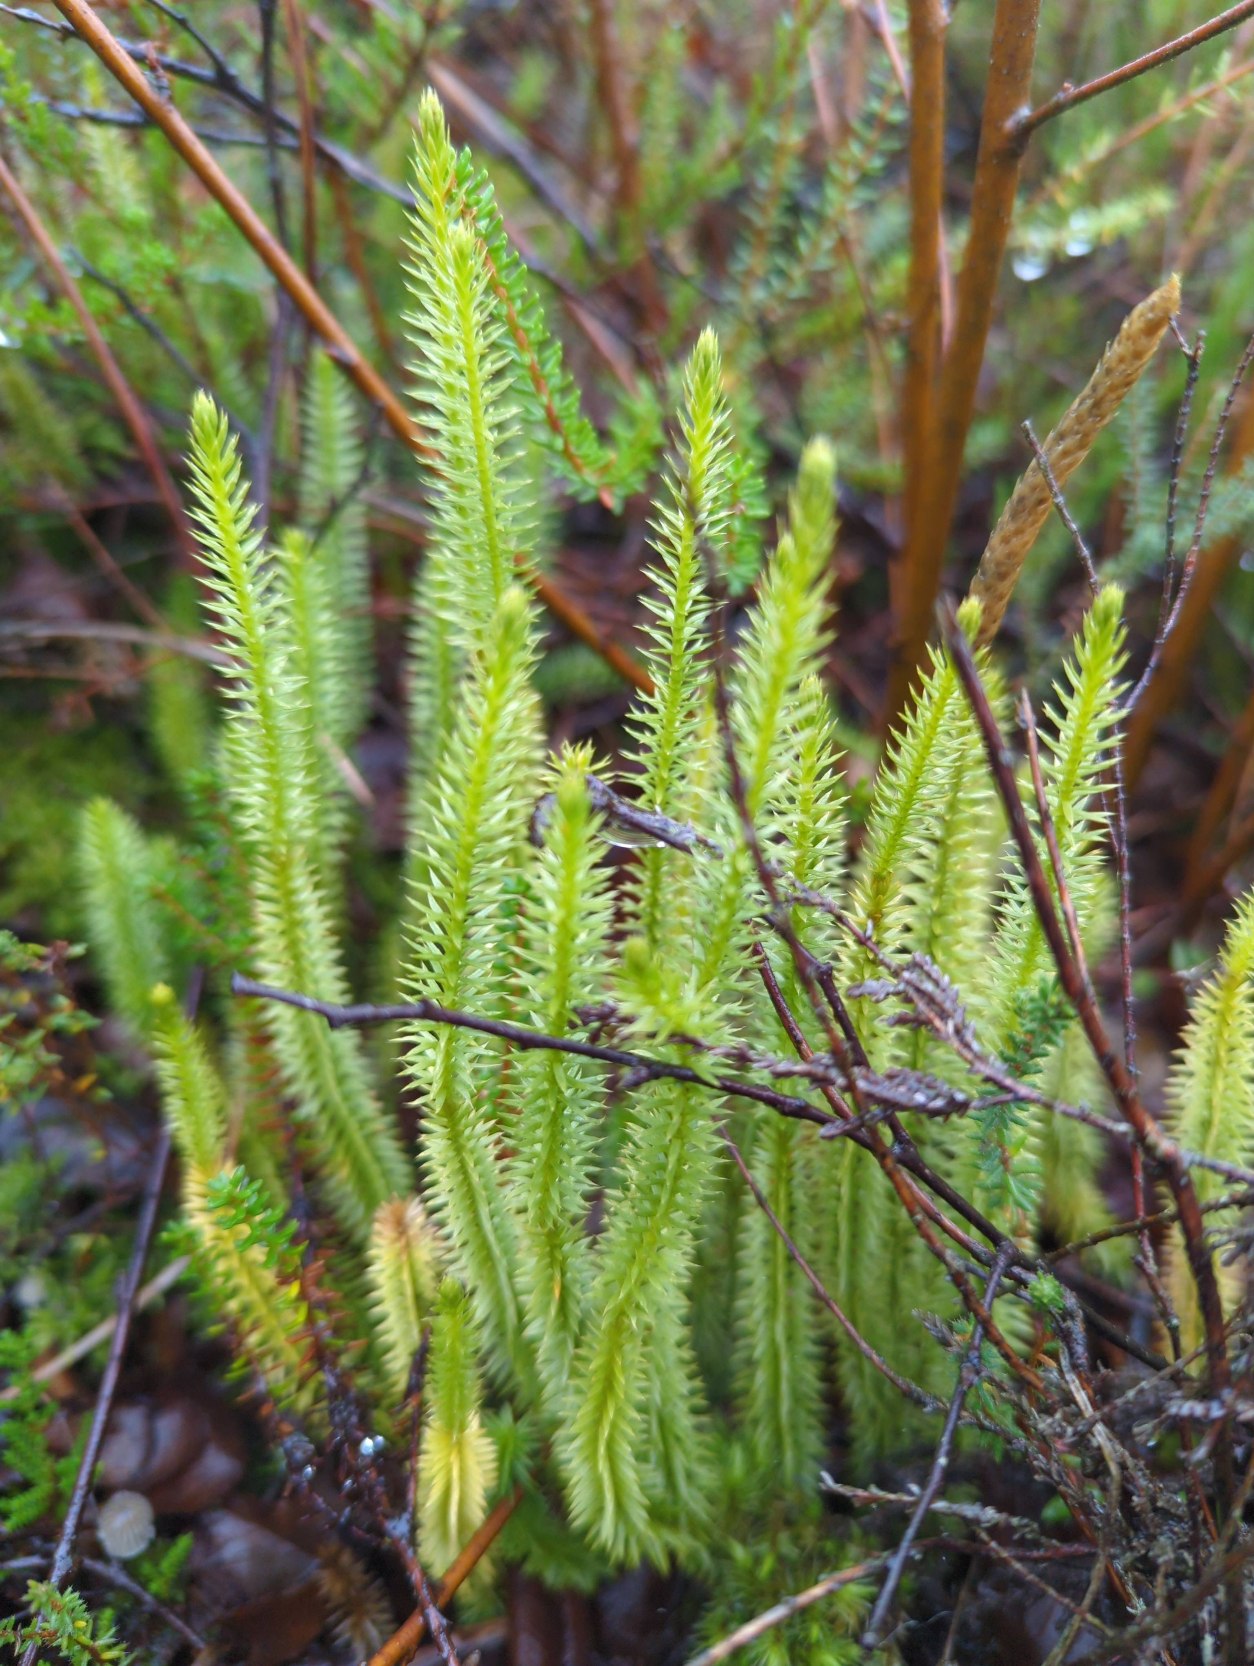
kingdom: Plantae
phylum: Tracheophyta
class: Lycopodiopsida
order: Lycopodiales
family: Lycopodiaceae
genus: Spinulum
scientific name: Spinulum annotinum
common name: Femradet ulvefod
